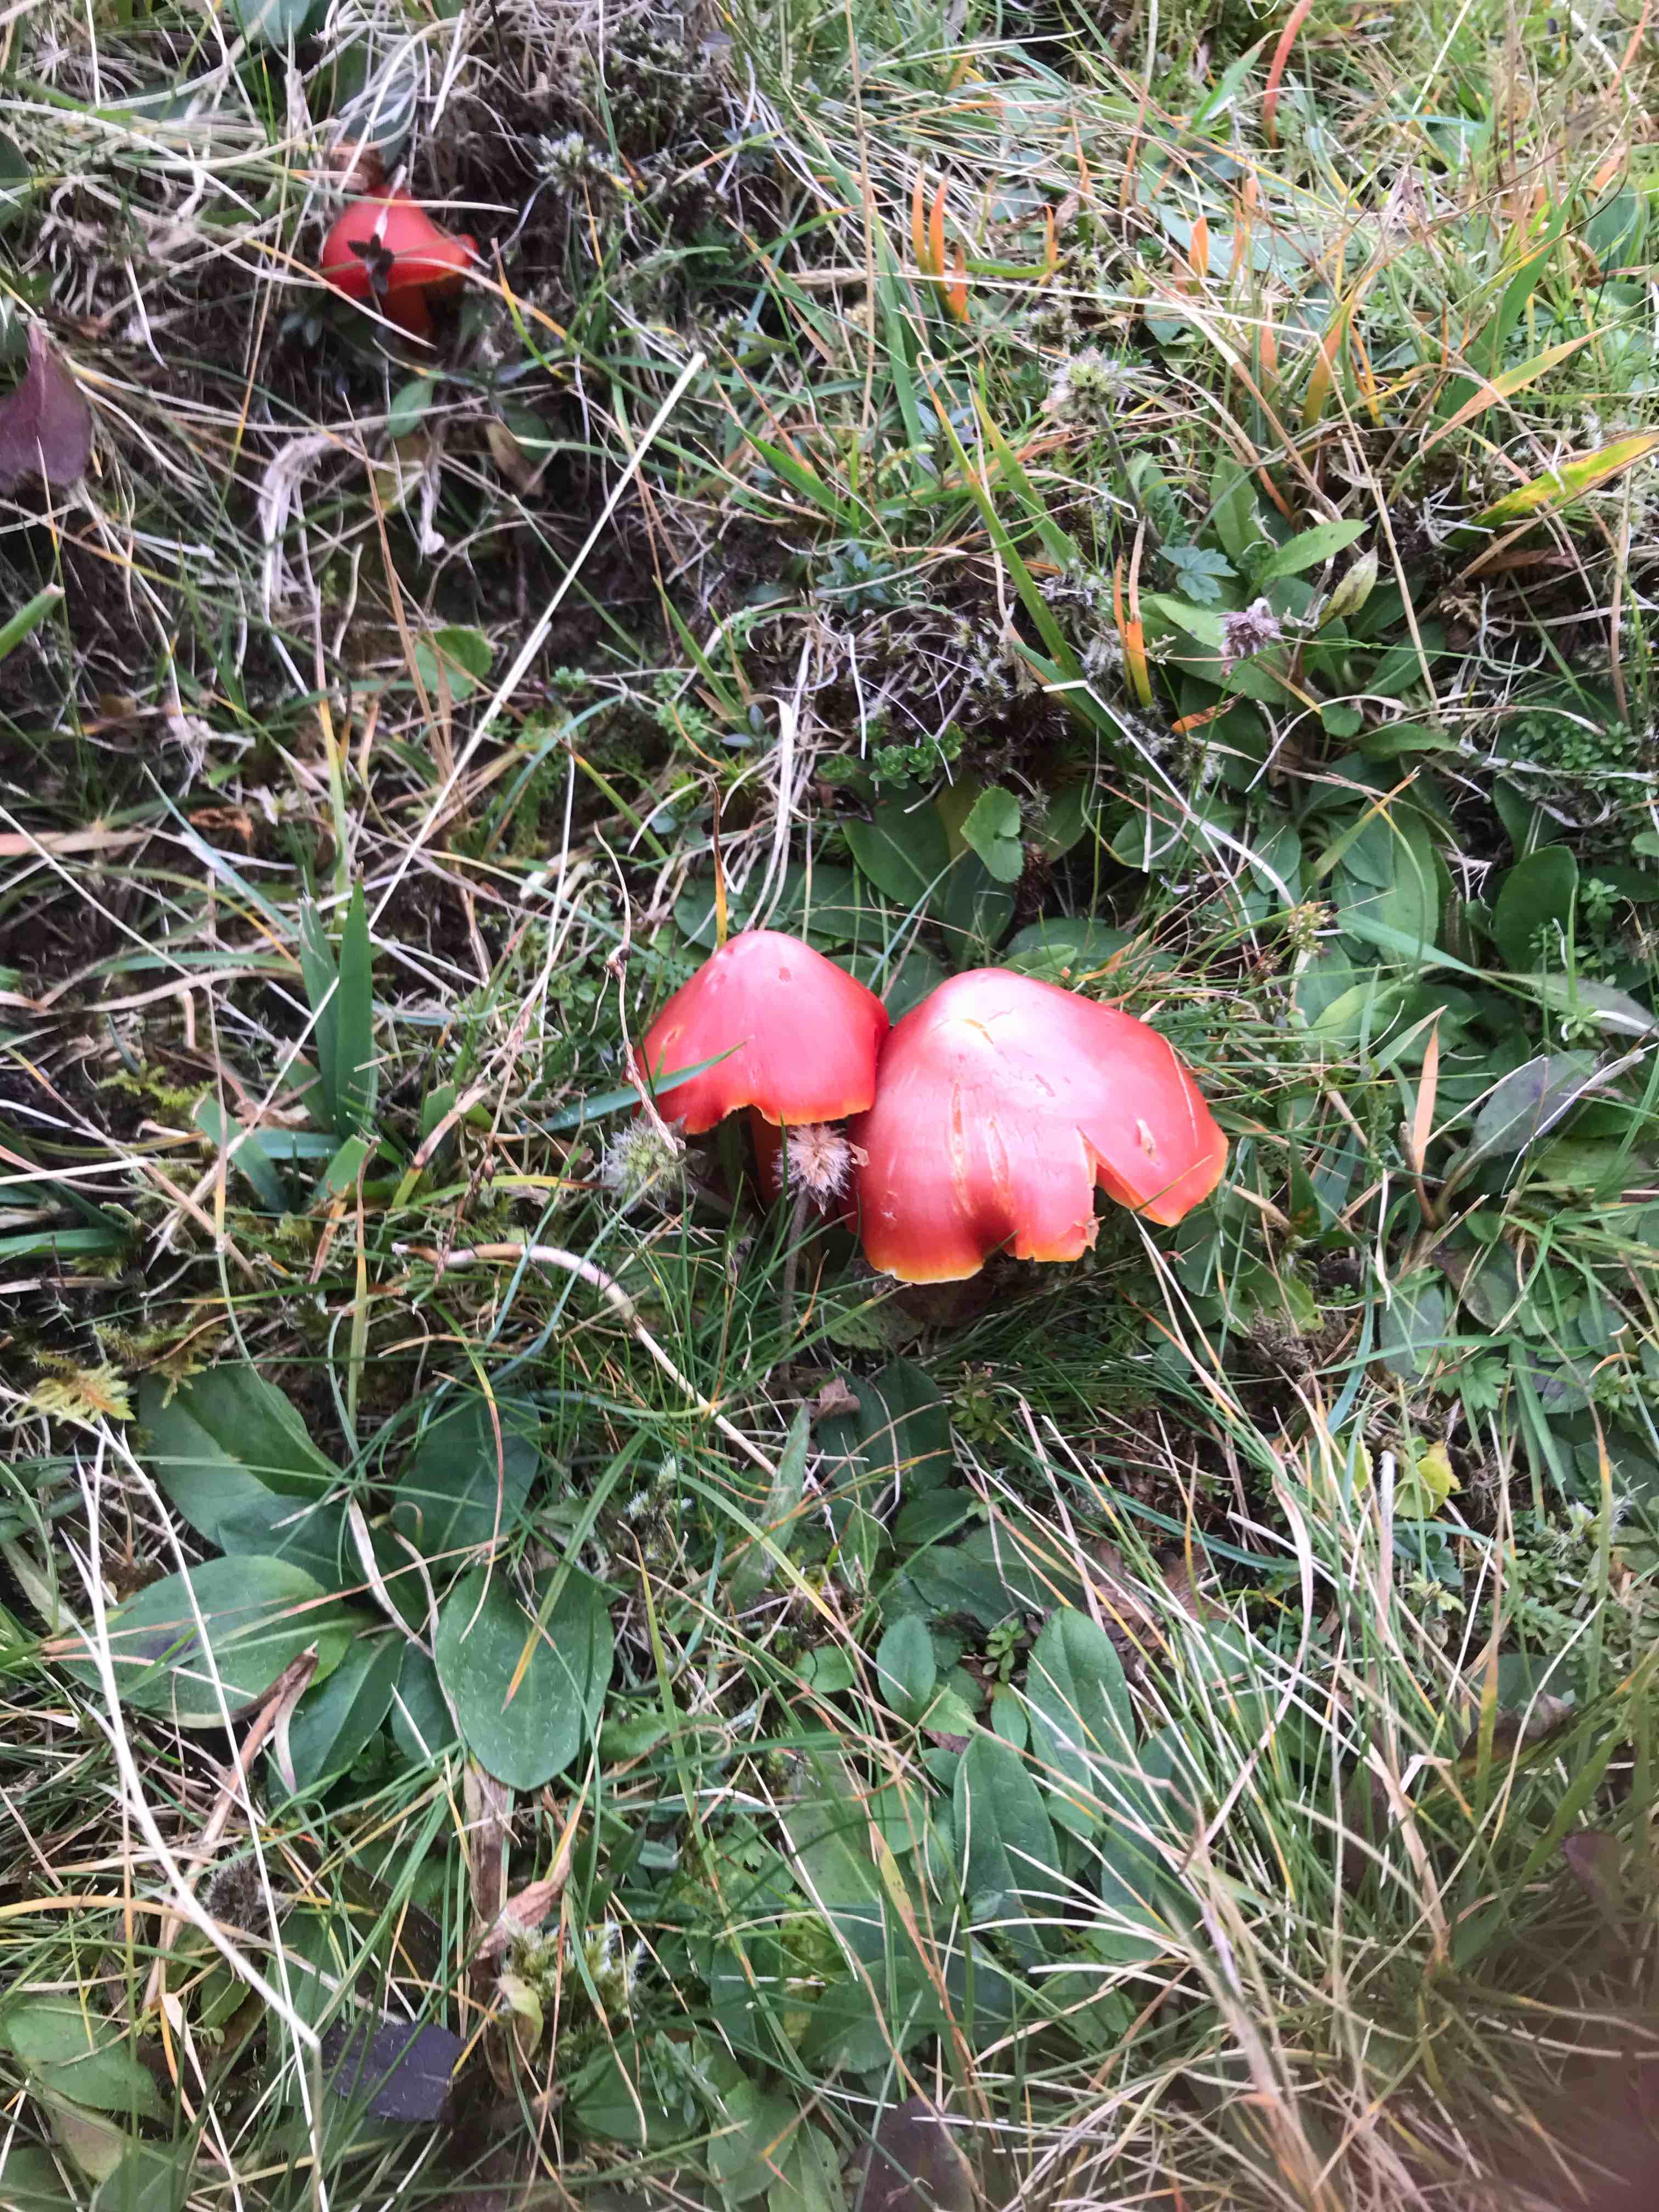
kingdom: Fungi
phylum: Basidiomycota
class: Agaricomycetes
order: Agaricales
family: Hygrophoraceae
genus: Hygrocybe
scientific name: Hygrocybe splendidissima
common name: knaldrød vokshat
